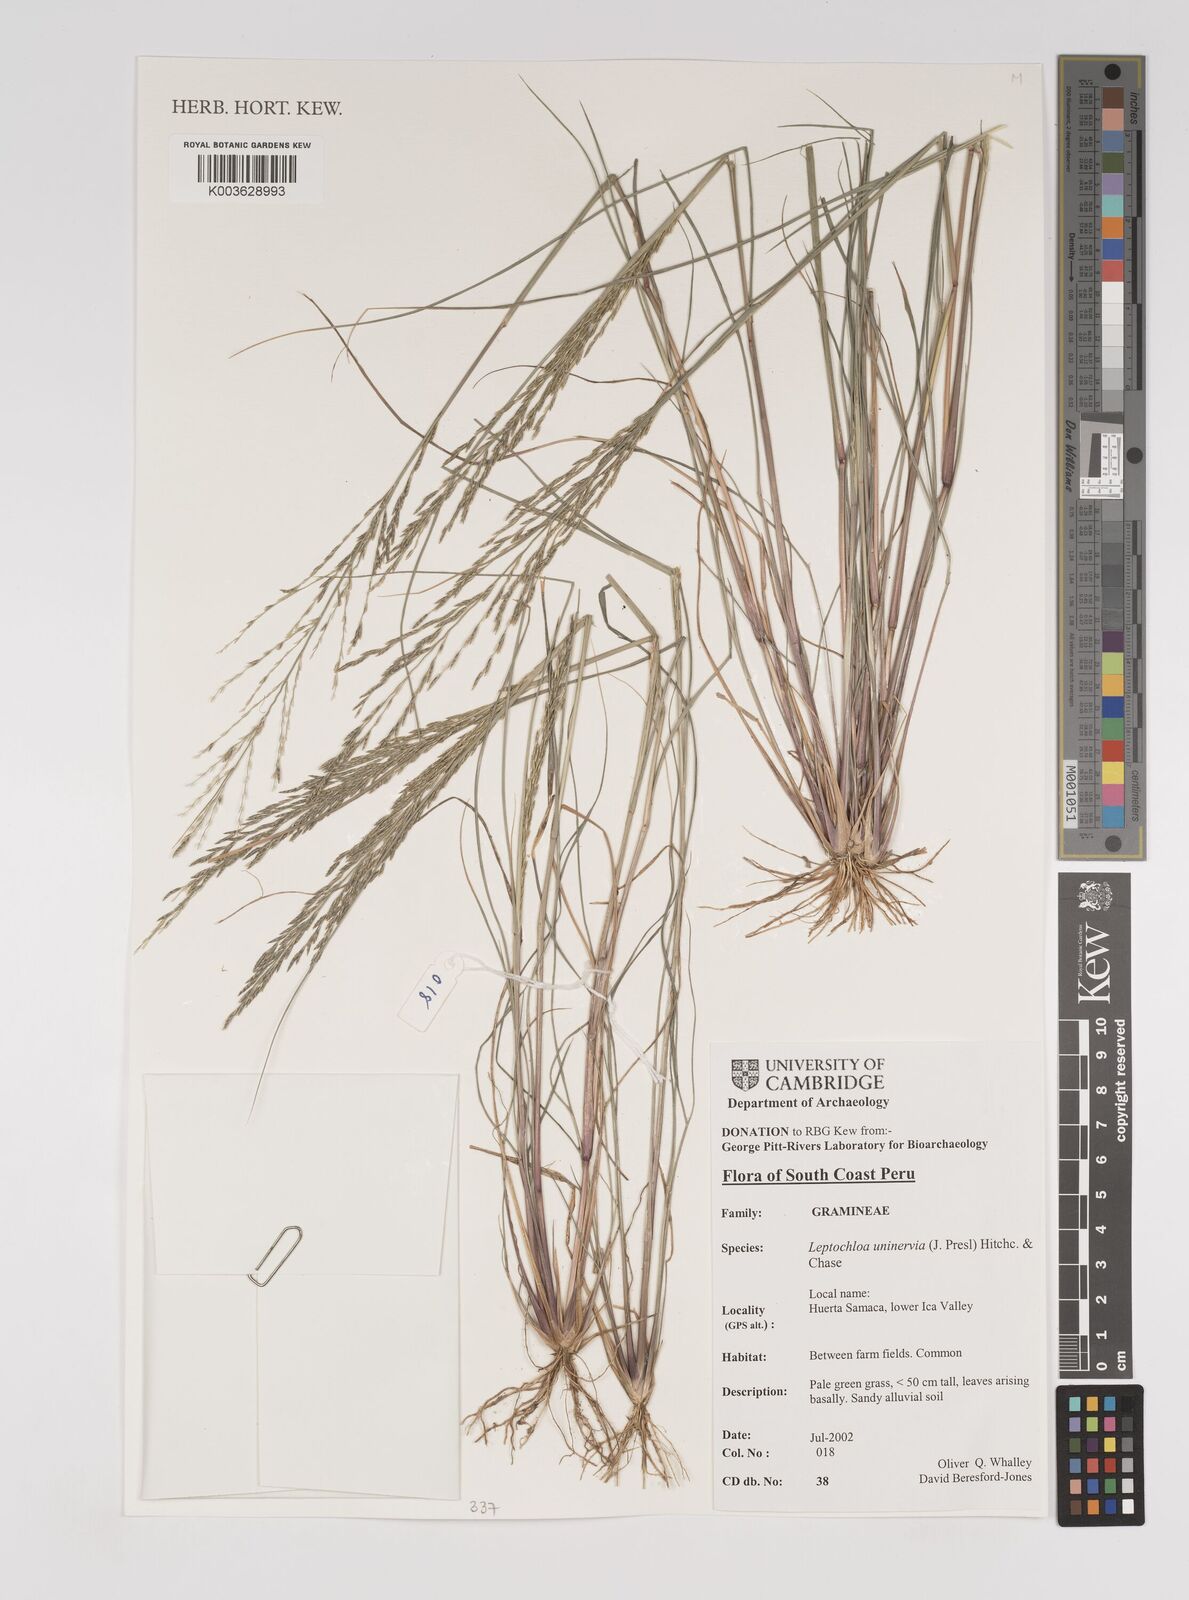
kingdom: Plantae
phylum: Tracheophyta
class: Liliopsida
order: Poales
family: Poaceae
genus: Diplachne
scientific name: Diplachne fusca
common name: Brown beetle grass
